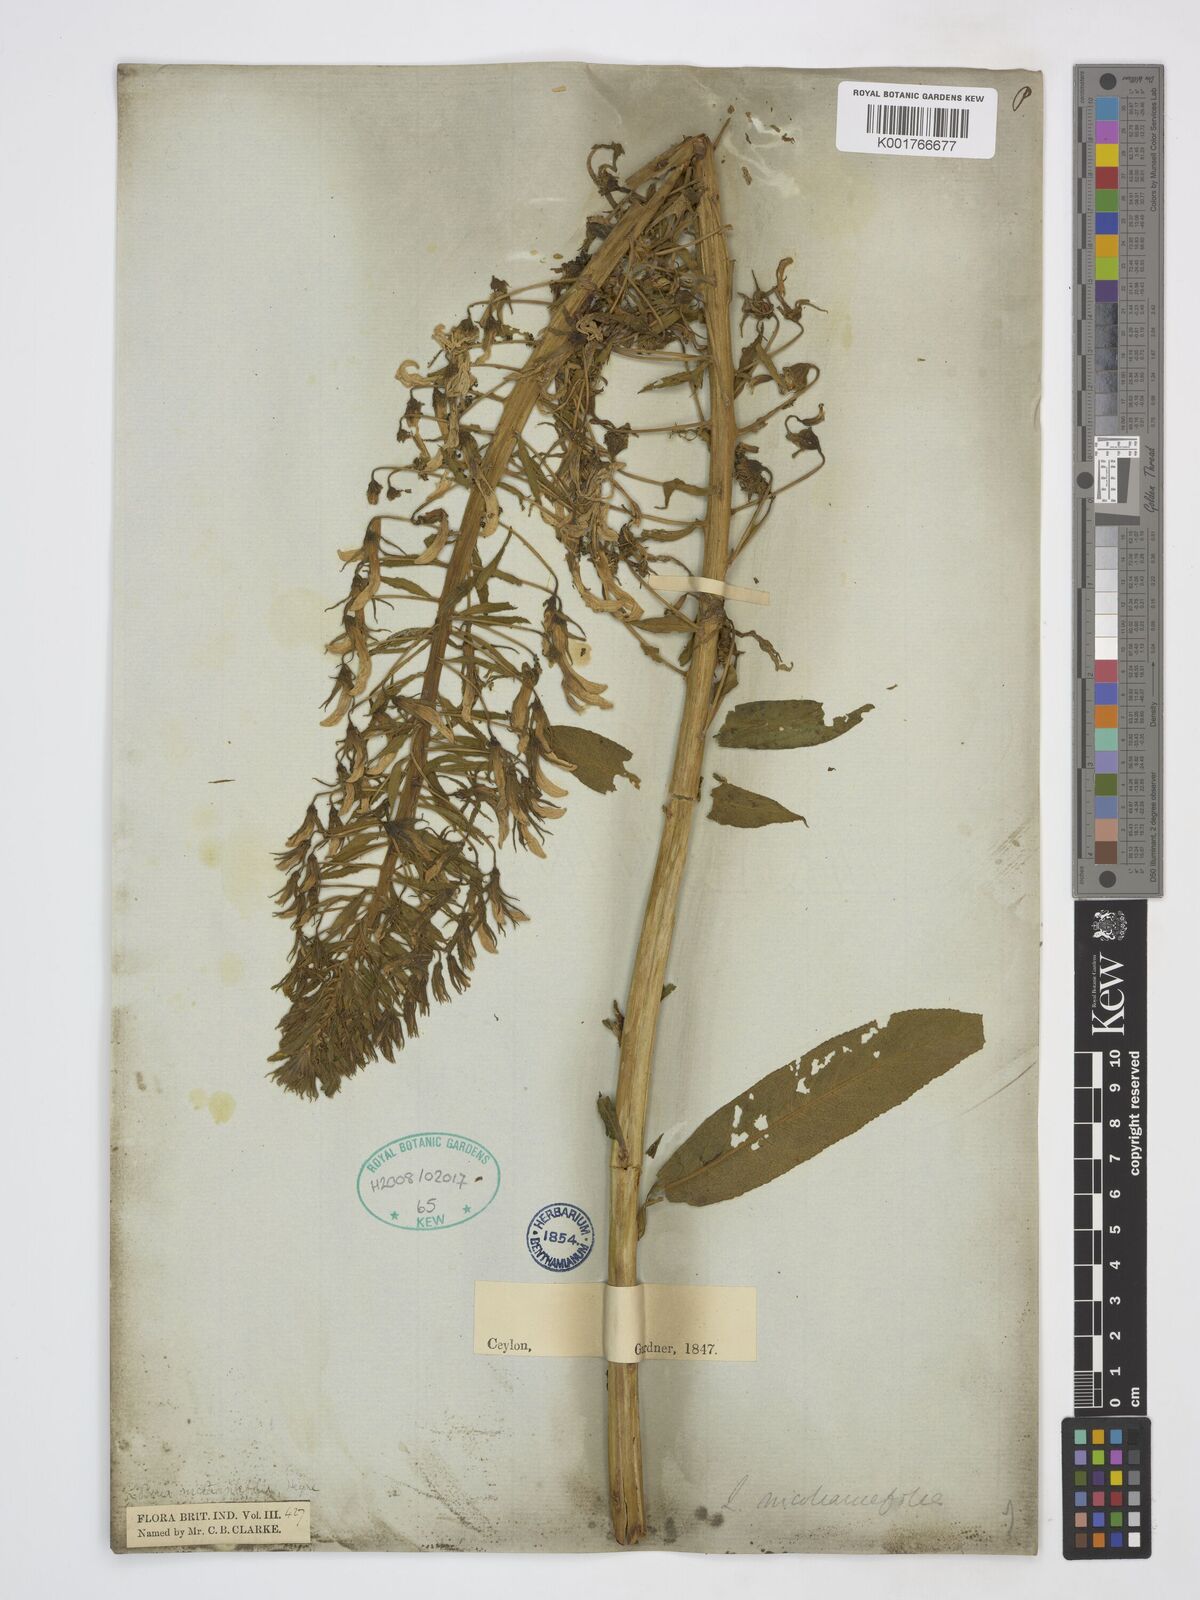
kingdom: Plantae
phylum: Tracheophyta
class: Magnoliopsida
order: Asterales
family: Campanulaceae
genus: Lobelia
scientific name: Lobelia nicotianifolia
